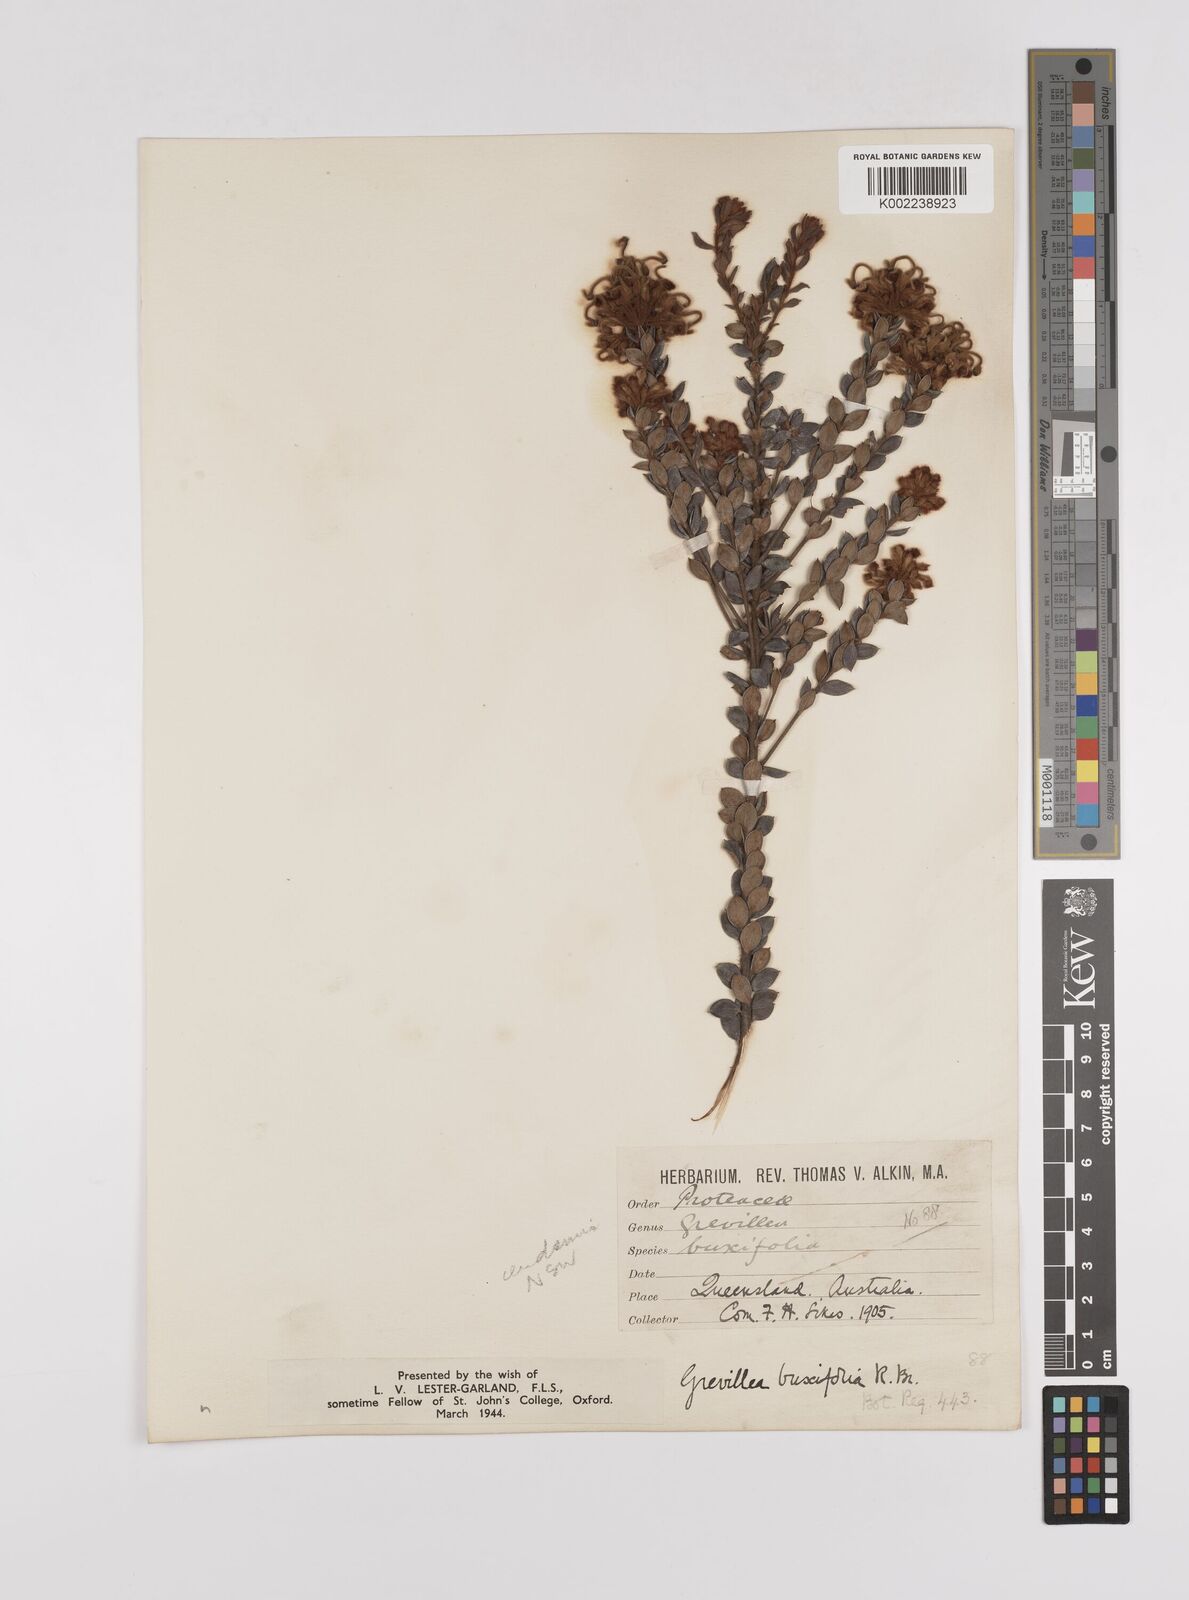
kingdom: Plantae
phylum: Tracheophyta
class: Magnoliopsida
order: Proteales
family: Proteaceae
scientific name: Proteaceae
